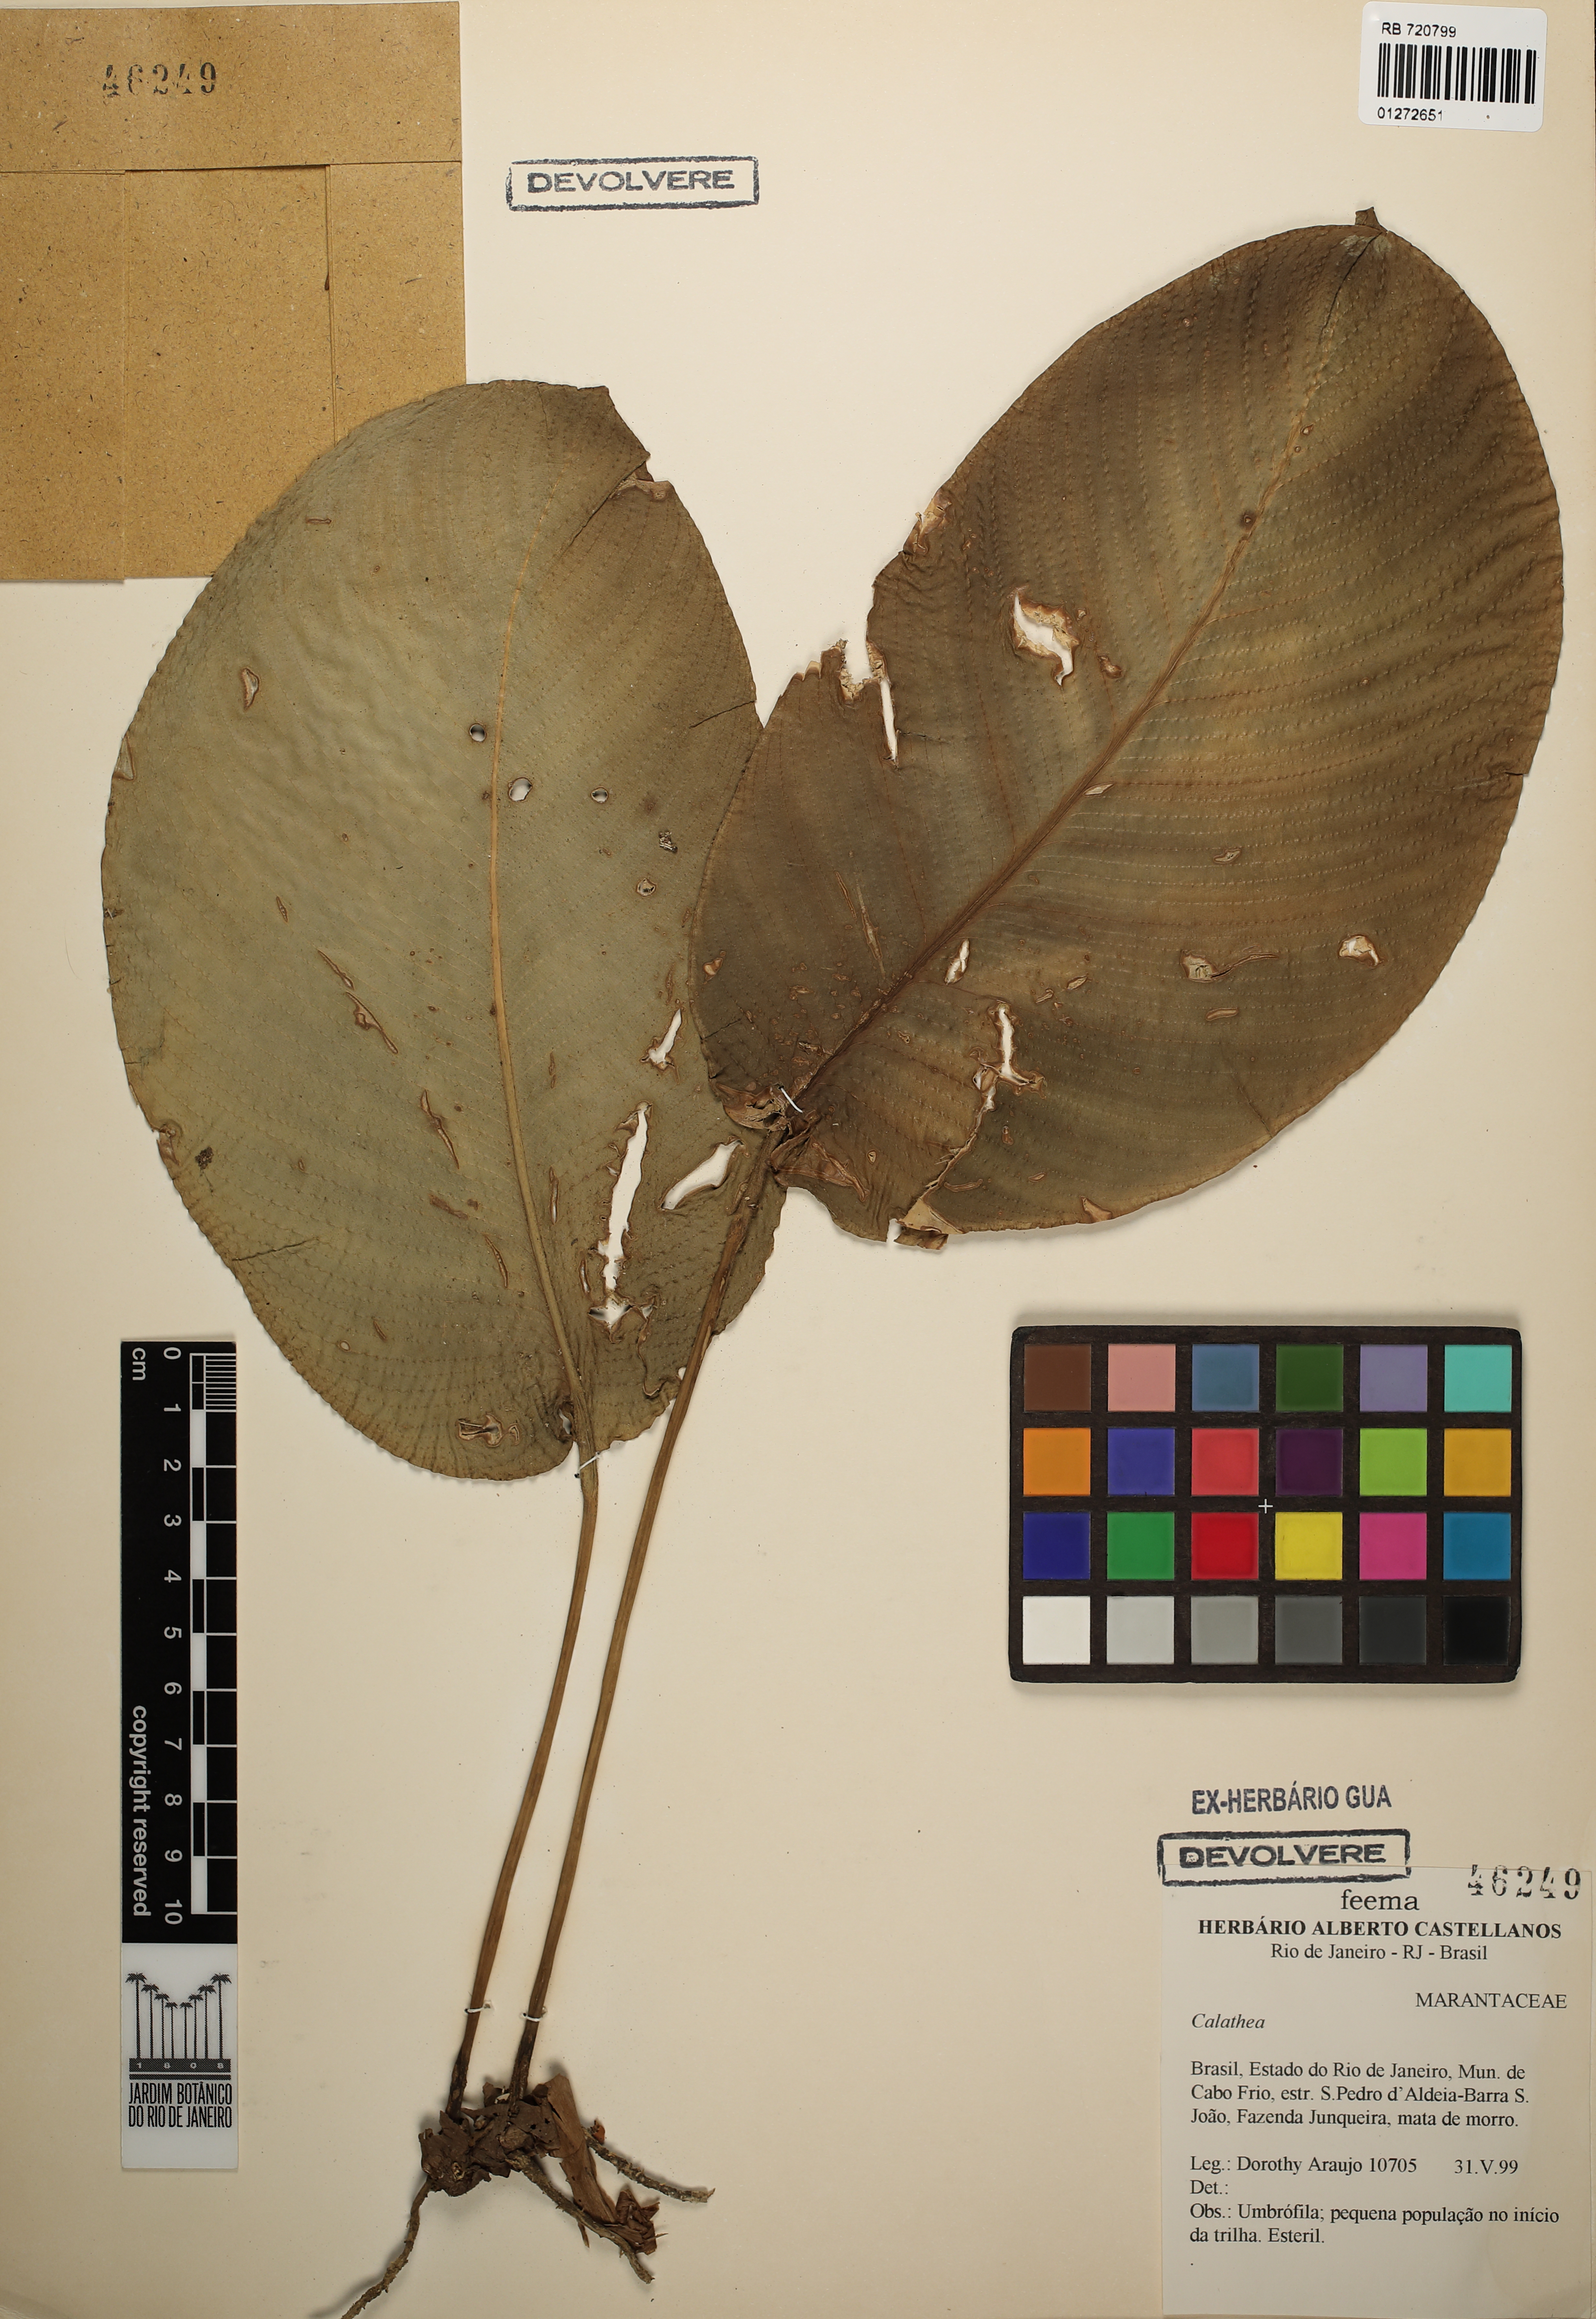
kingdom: Plantae
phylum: Tracheophyta
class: Liliopsida
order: Zingiberales
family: Marantaceae
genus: Calathea
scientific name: Calathea
